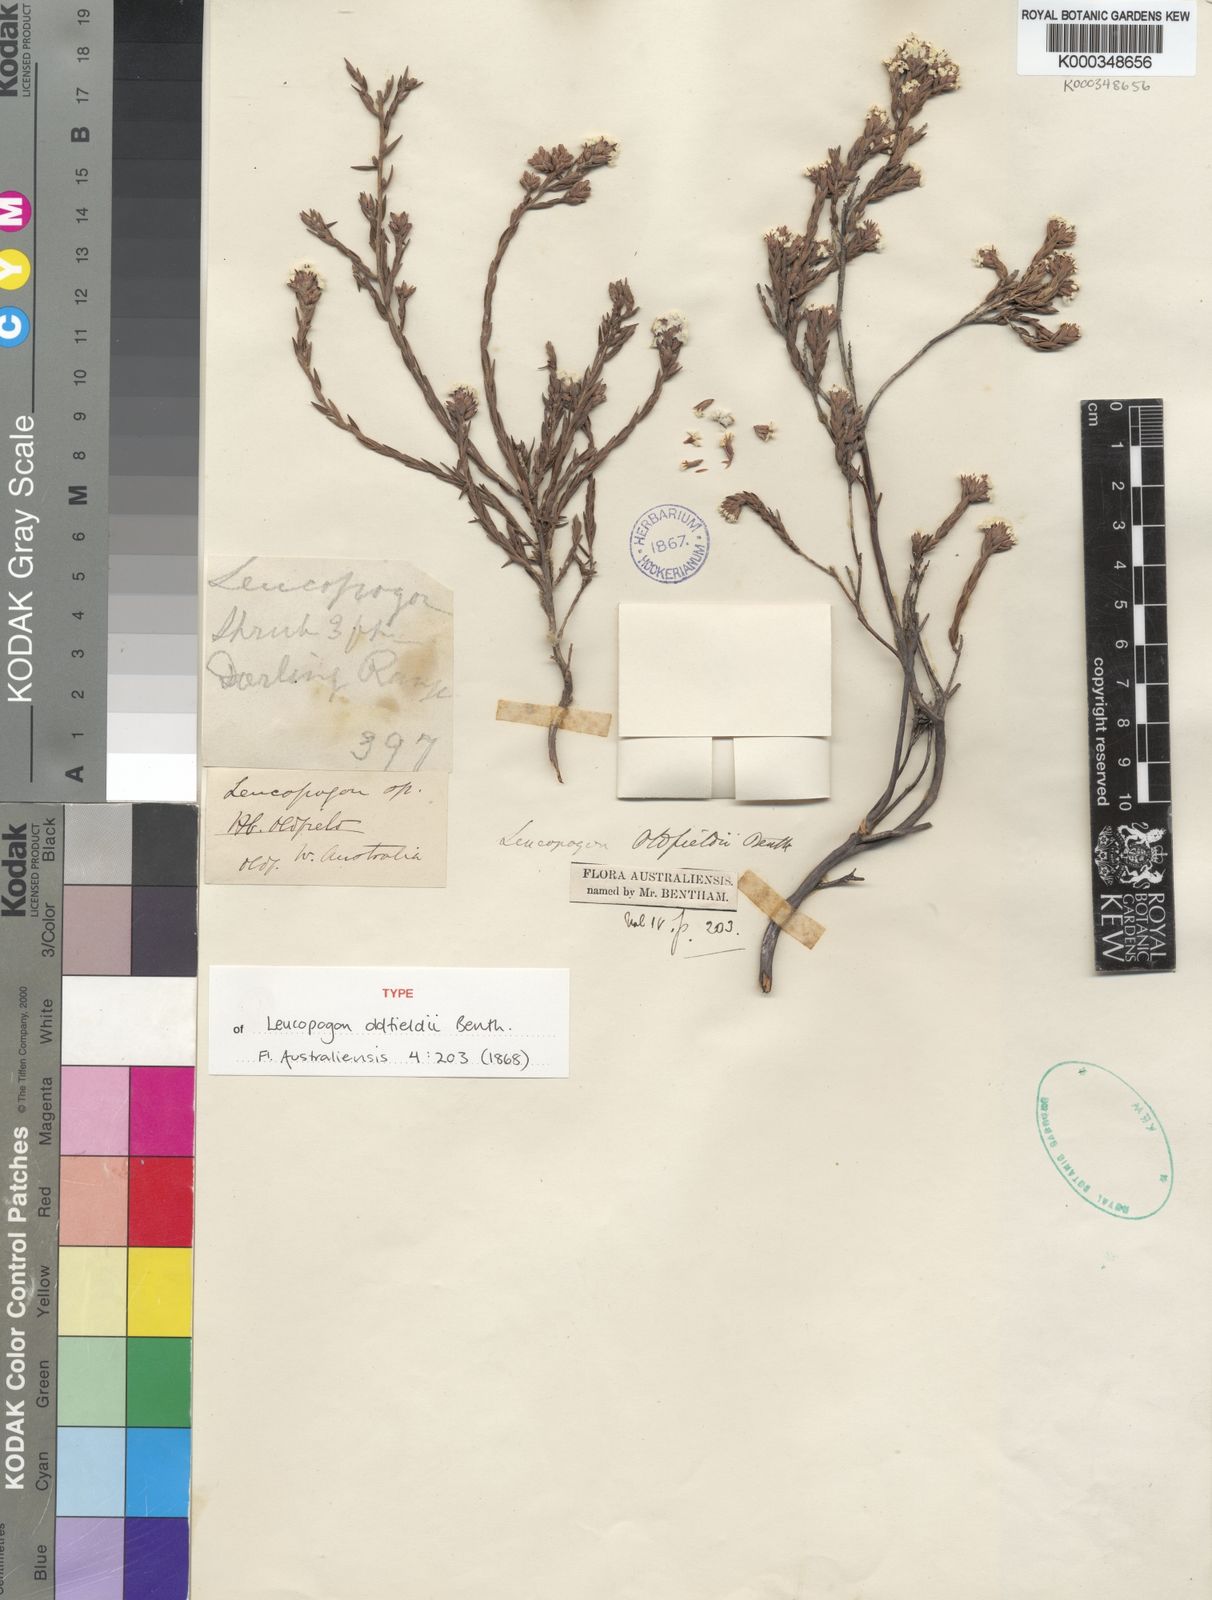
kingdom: Plantae
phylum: Tracheophyta
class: Magnoliopsida
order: Ericales
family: Ericaceae
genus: Leucopogon
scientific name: Leucopogon oldfieldii
